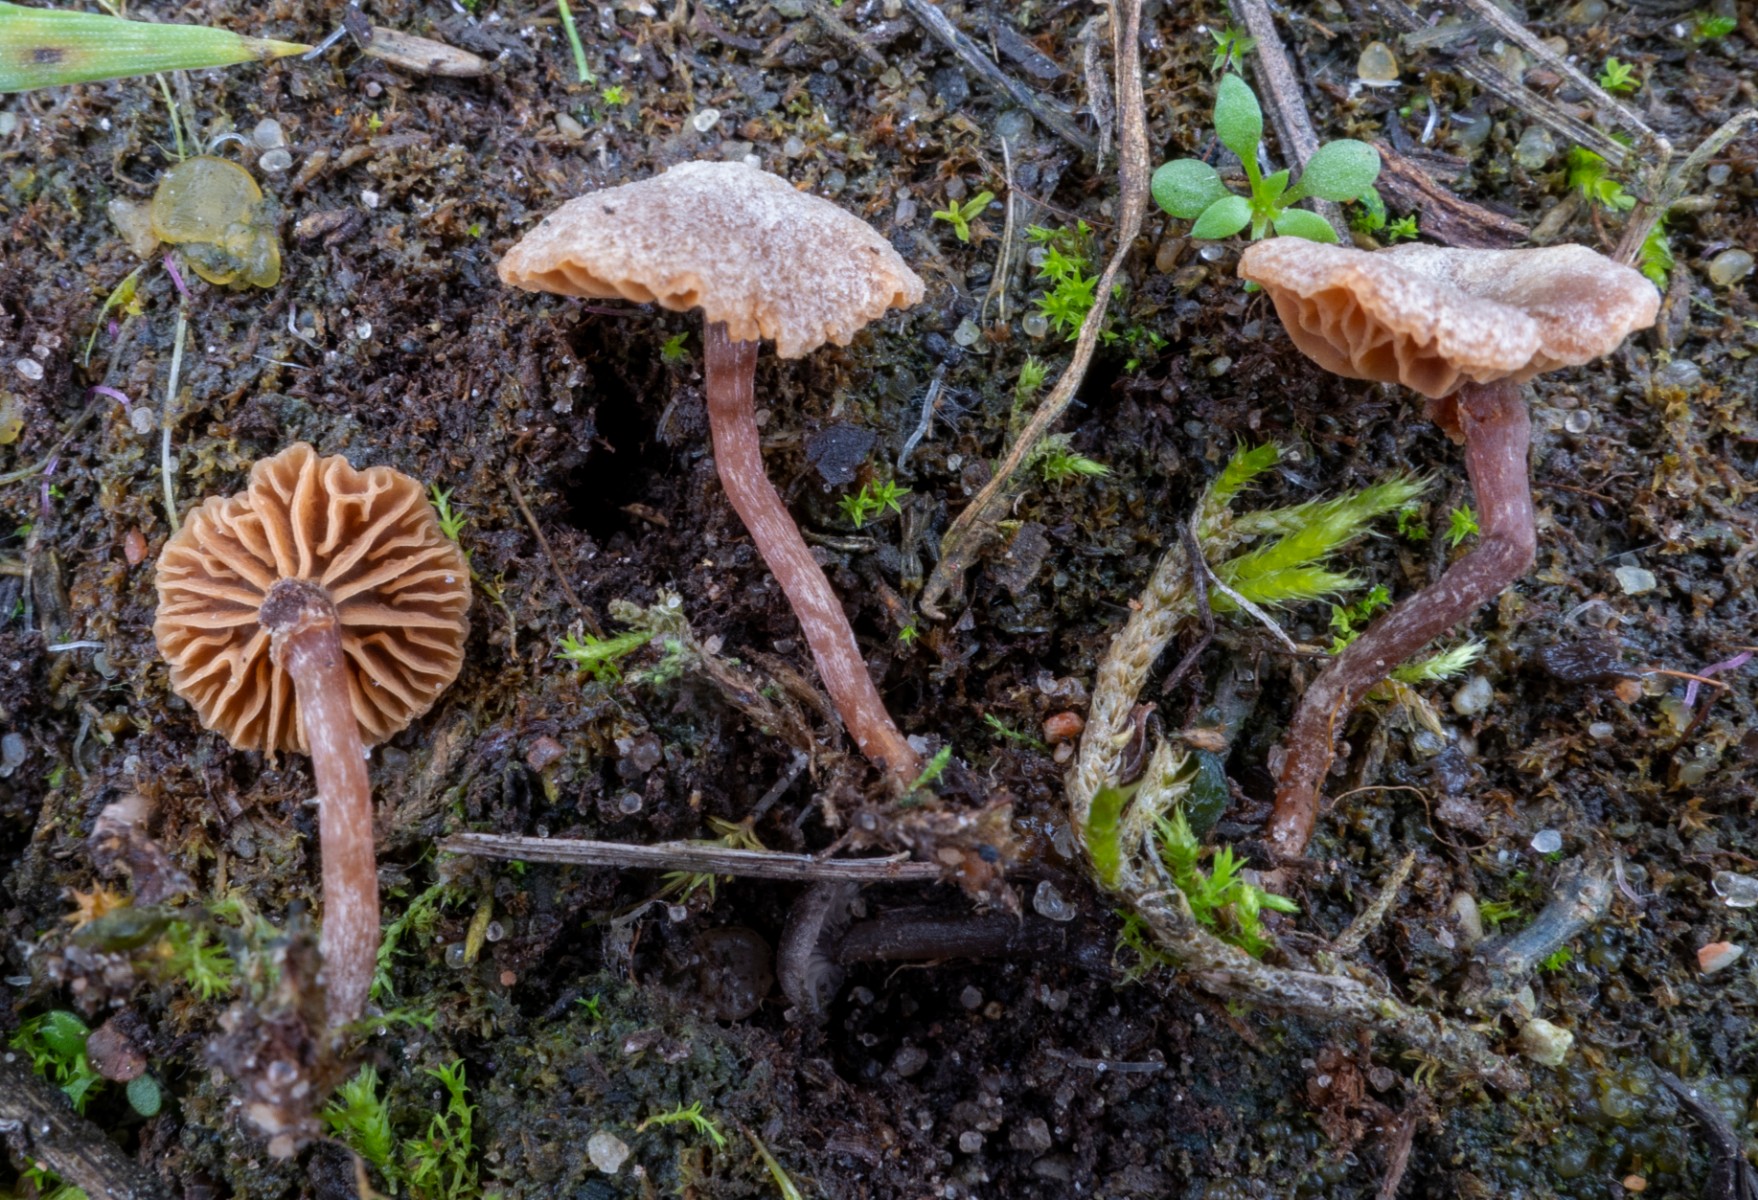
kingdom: Fungi
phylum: Basidiomycota
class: Agaricomycetes
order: Agaricales
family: Crassisporiaceae
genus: Romagnesiella
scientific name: Romagnesiella clavus
